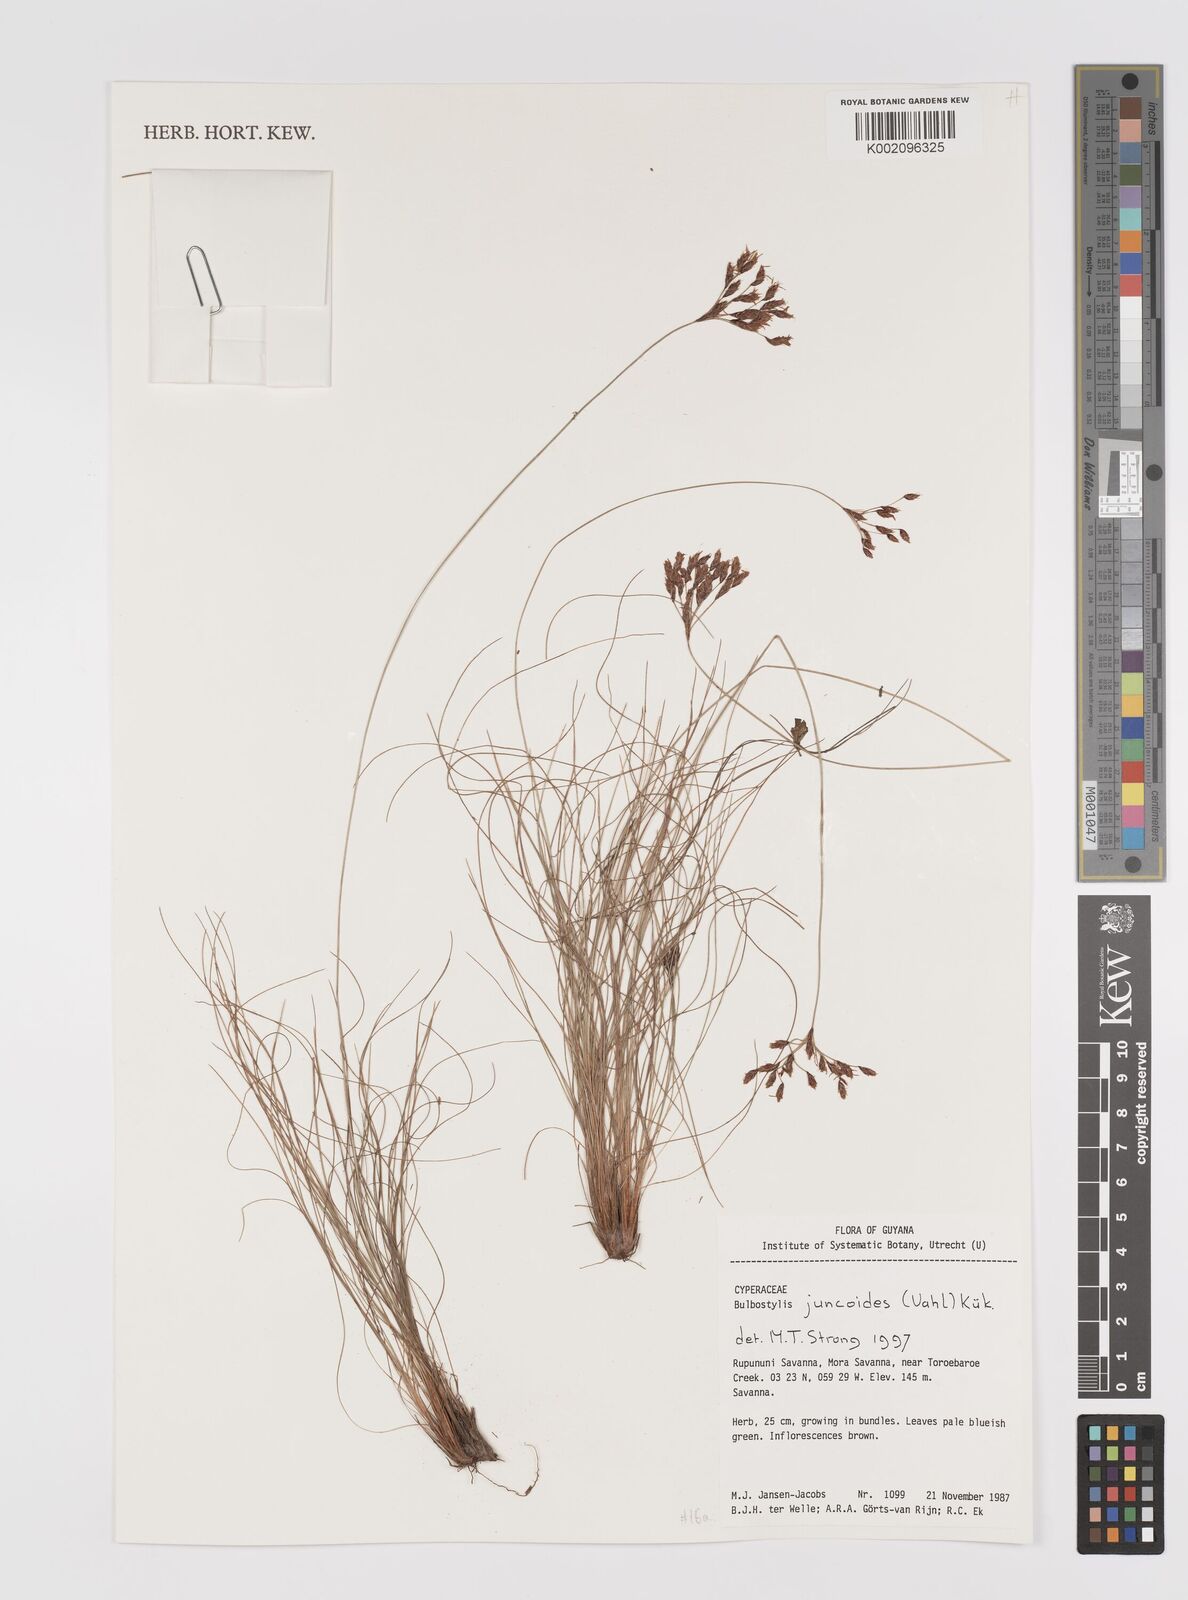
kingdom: Plantae
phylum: Tracheophyta
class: Liliopsida
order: Poales
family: Cyperaceae
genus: Bulbostylis
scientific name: Bulbostylis juncoides
